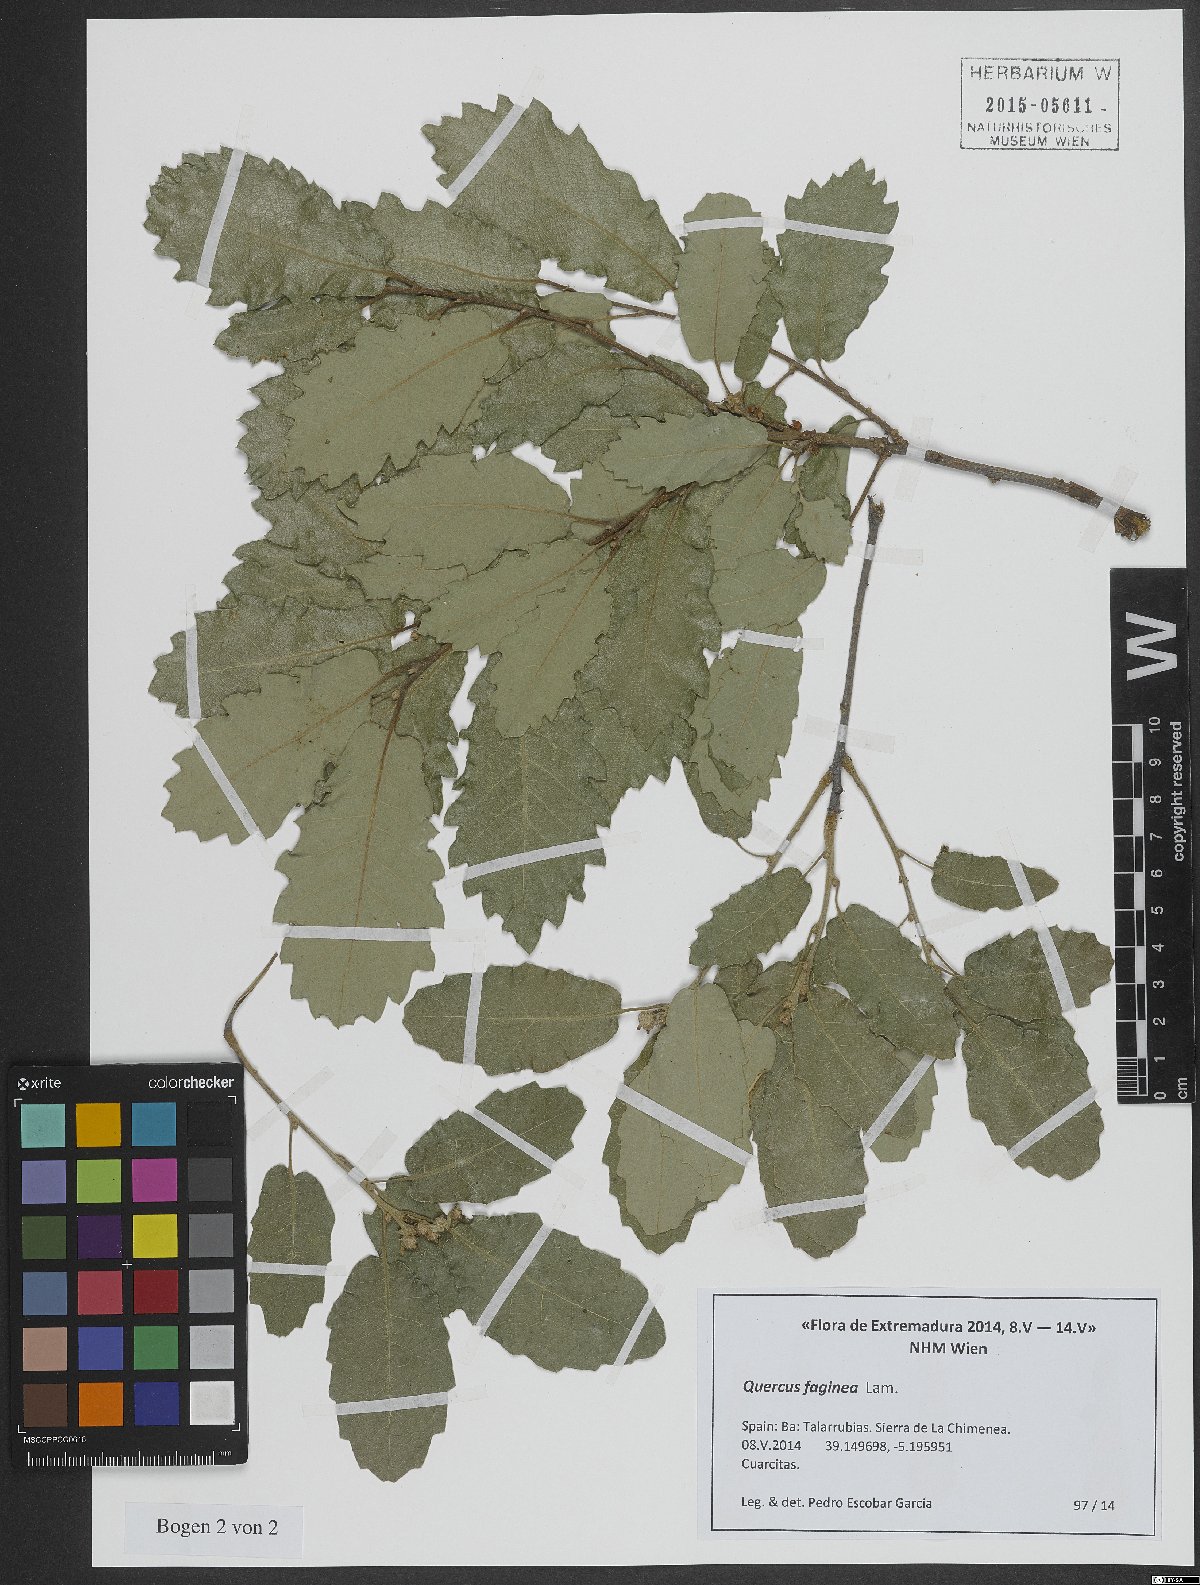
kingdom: Plantae
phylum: Tracheophyta
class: Magnoliopsida
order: Fagales
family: Fagaceae
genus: Quercus
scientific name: Quercus faginea
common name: Gall oak tree
